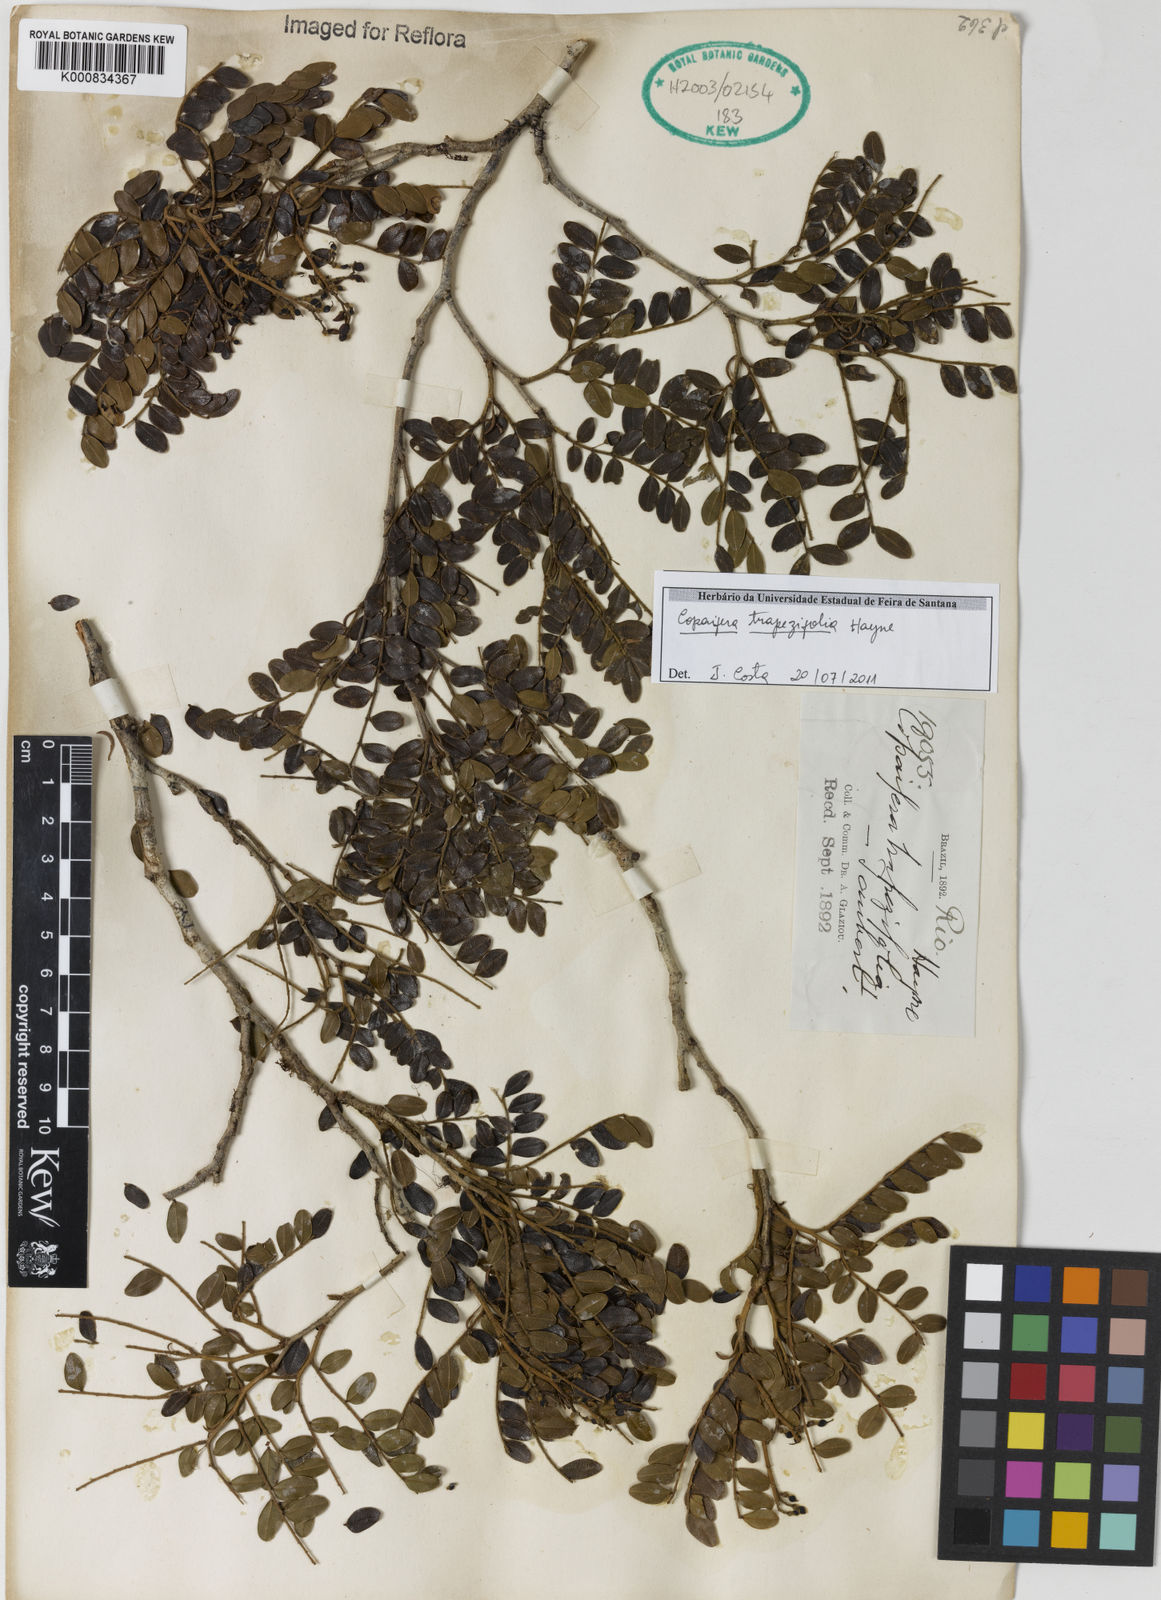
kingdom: Plantae
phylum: Tracheophyta
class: Magnoliopsida
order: Fabales
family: Fabaceae
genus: Copaifera
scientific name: Copaifera trapezifolia
